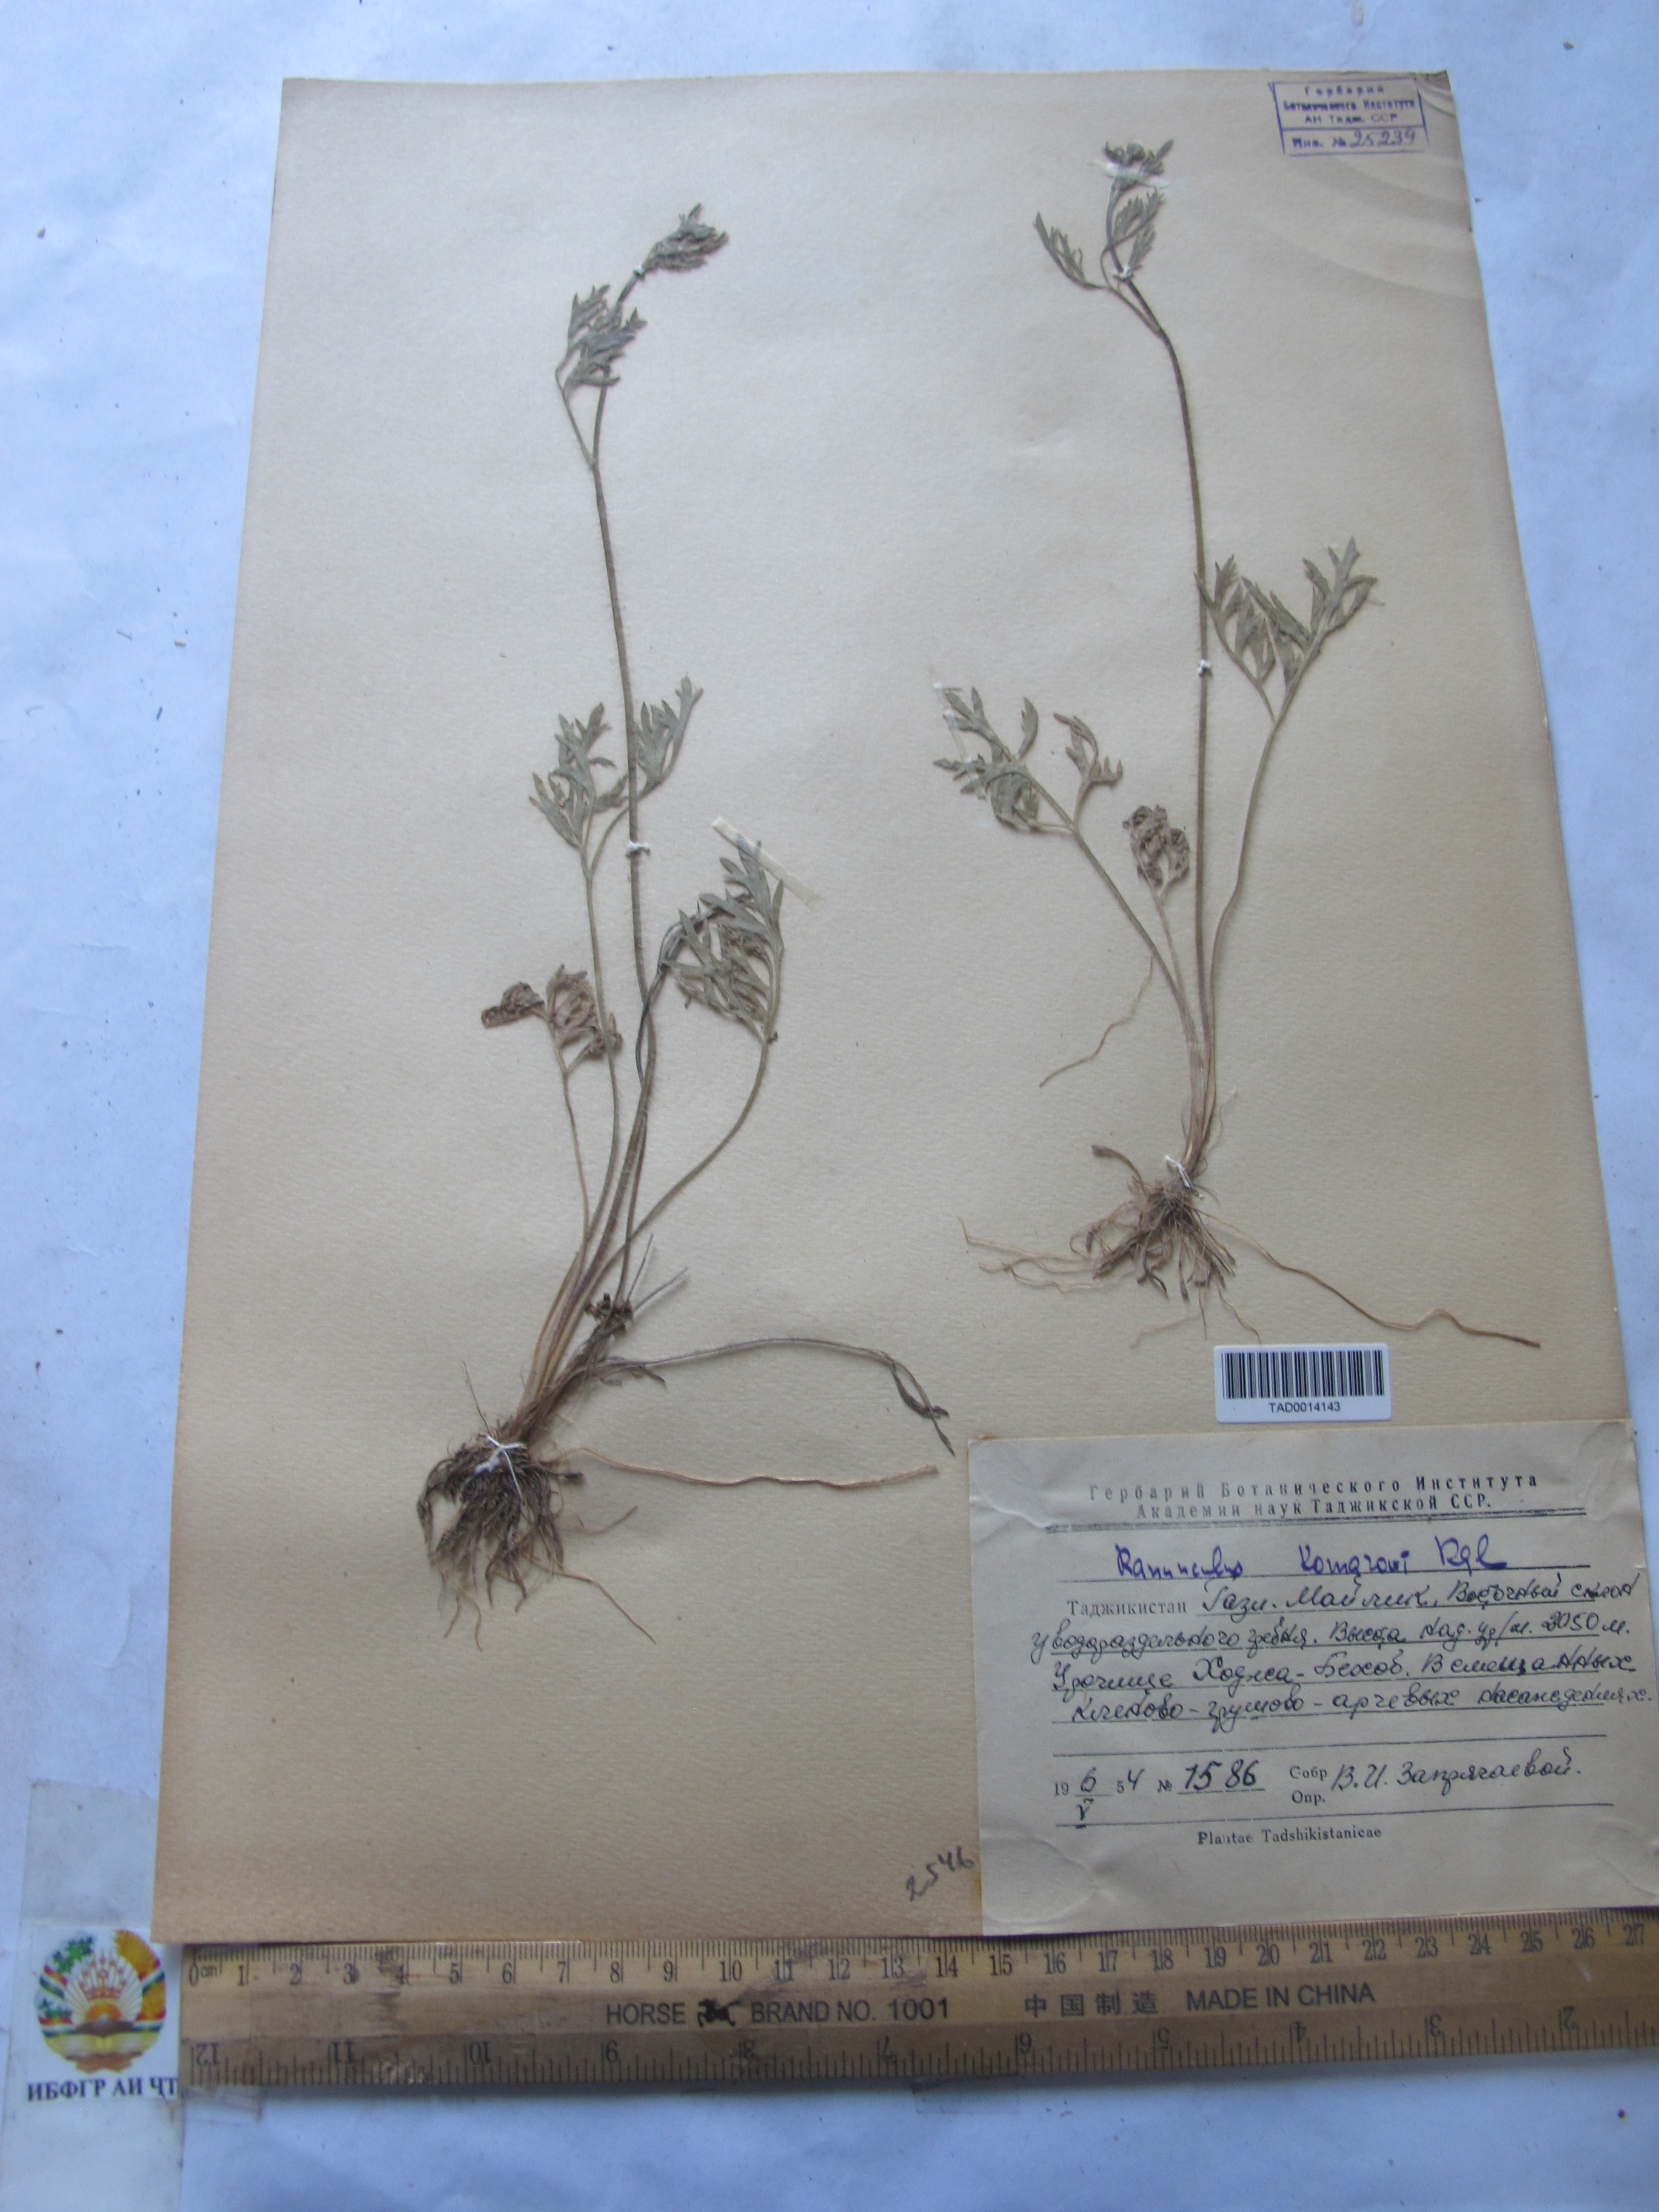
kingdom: Plantae
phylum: Tracheophyta
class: Magnoliopsida
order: Ranunculales
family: Ranunculaceae
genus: Ranunculus
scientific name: Ranunculus komarovii
